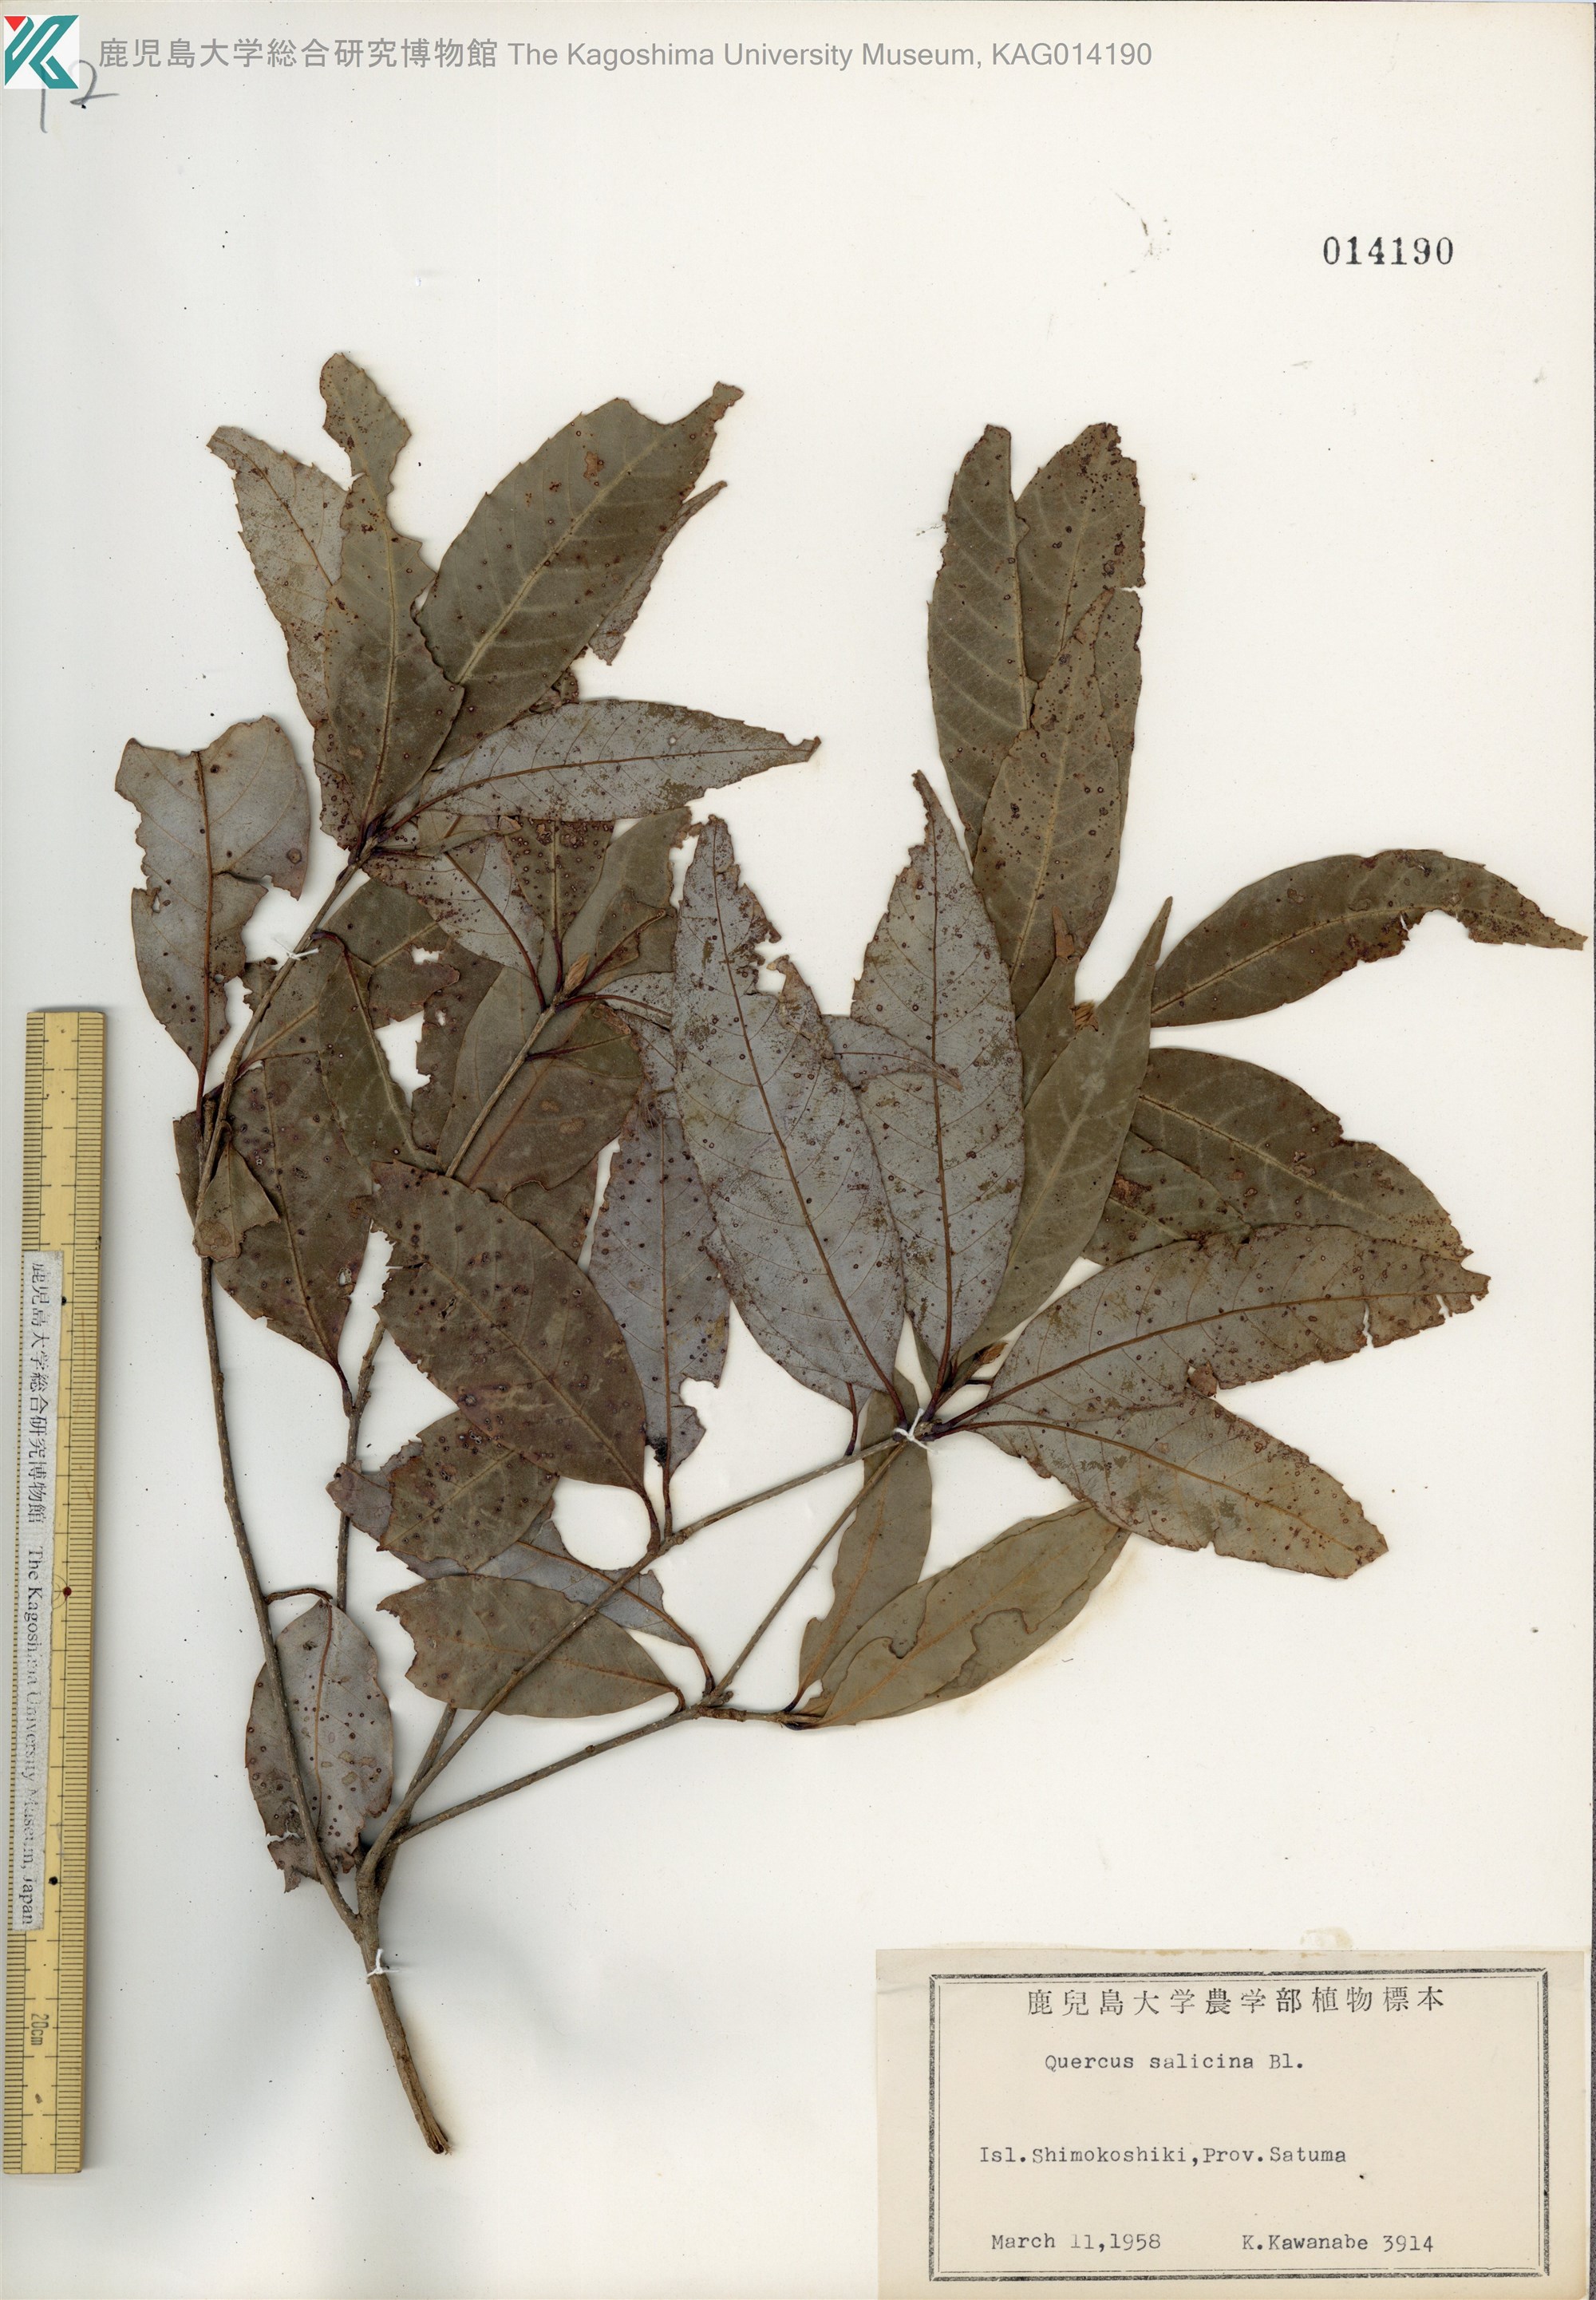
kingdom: Plantae
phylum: Tracheophyta
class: Magnoliopsida
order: Fagales
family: Fagaceae
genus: Quercus
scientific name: Quercus salicina
